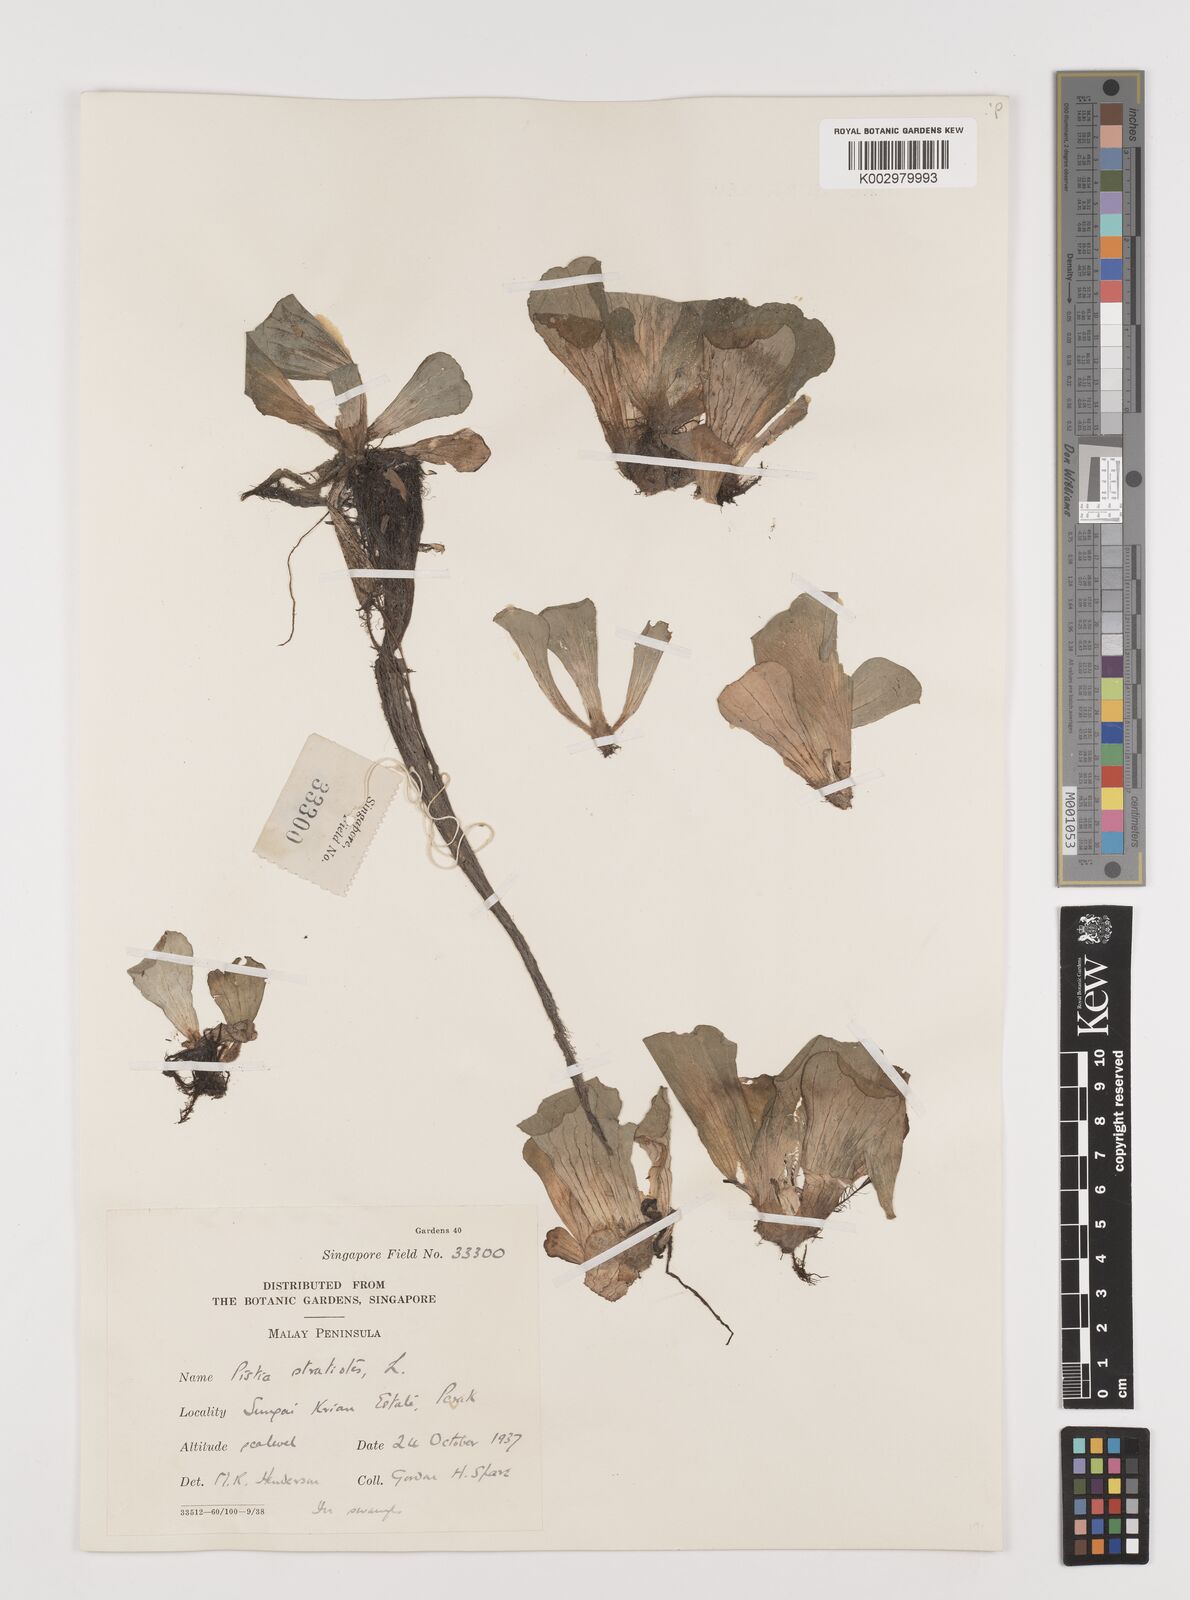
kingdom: Plantae
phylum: Tracheophyta
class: Liliopsida
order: Alismatales
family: Araceae
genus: Pistia
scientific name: Pistia stratiotes
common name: Water lettuce
